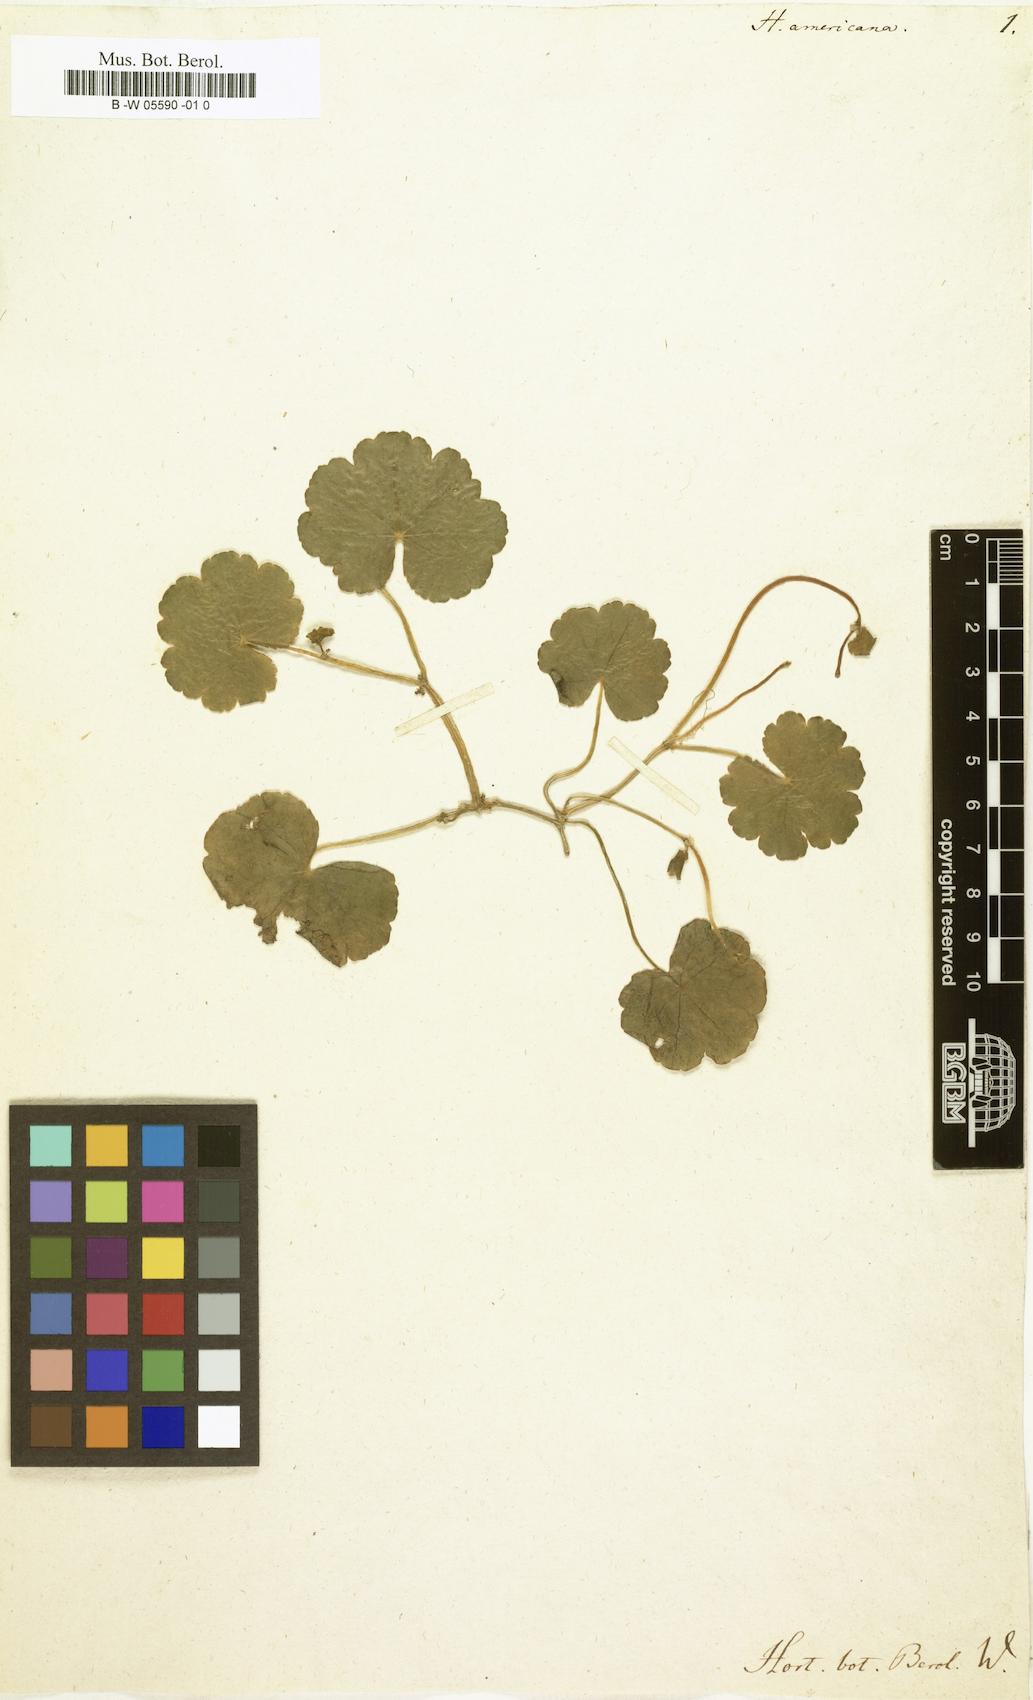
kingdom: Plantae
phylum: Tracheophyta
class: Magnoliopsida
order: Apiales
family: Araliaceae
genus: Hydrocotyle
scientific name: Hydrocotyle americana
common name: American water-pennywort
